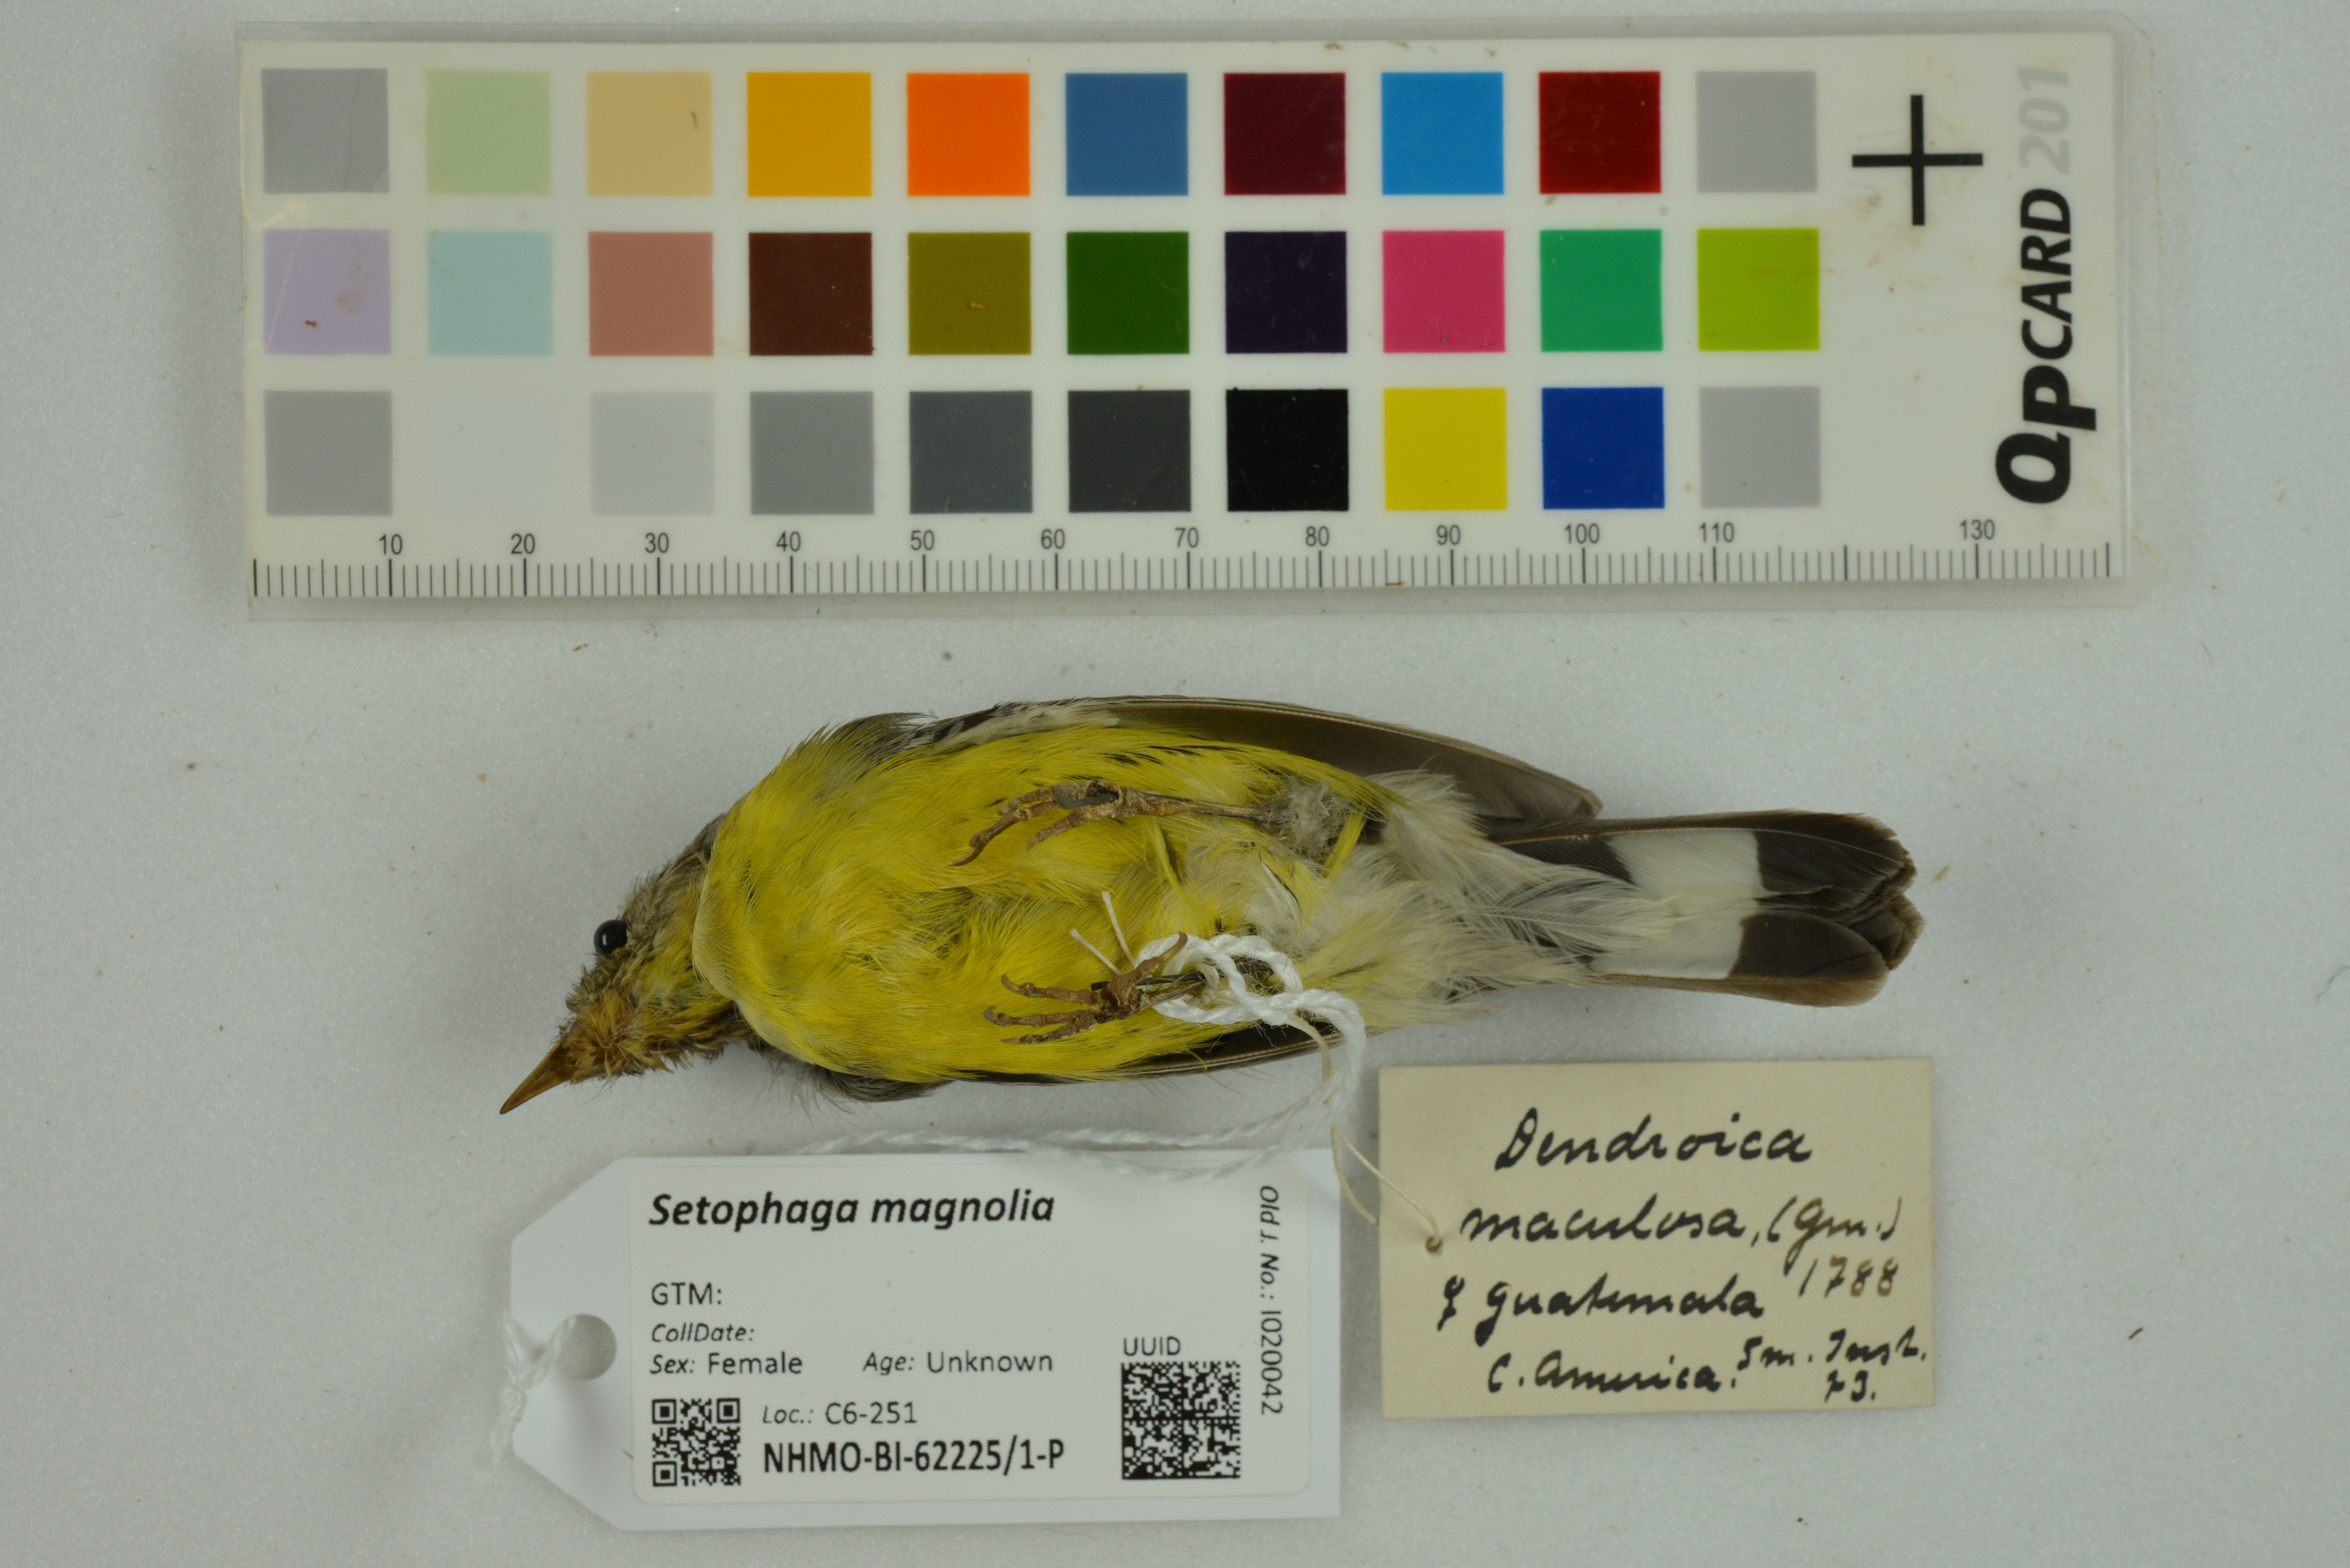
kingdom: Animalia
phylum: Chordata
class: Aves
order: Passeriformes
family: Parulidae
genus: Setophaga
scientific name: Setophaga magnolia
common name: Magnolia warbler
